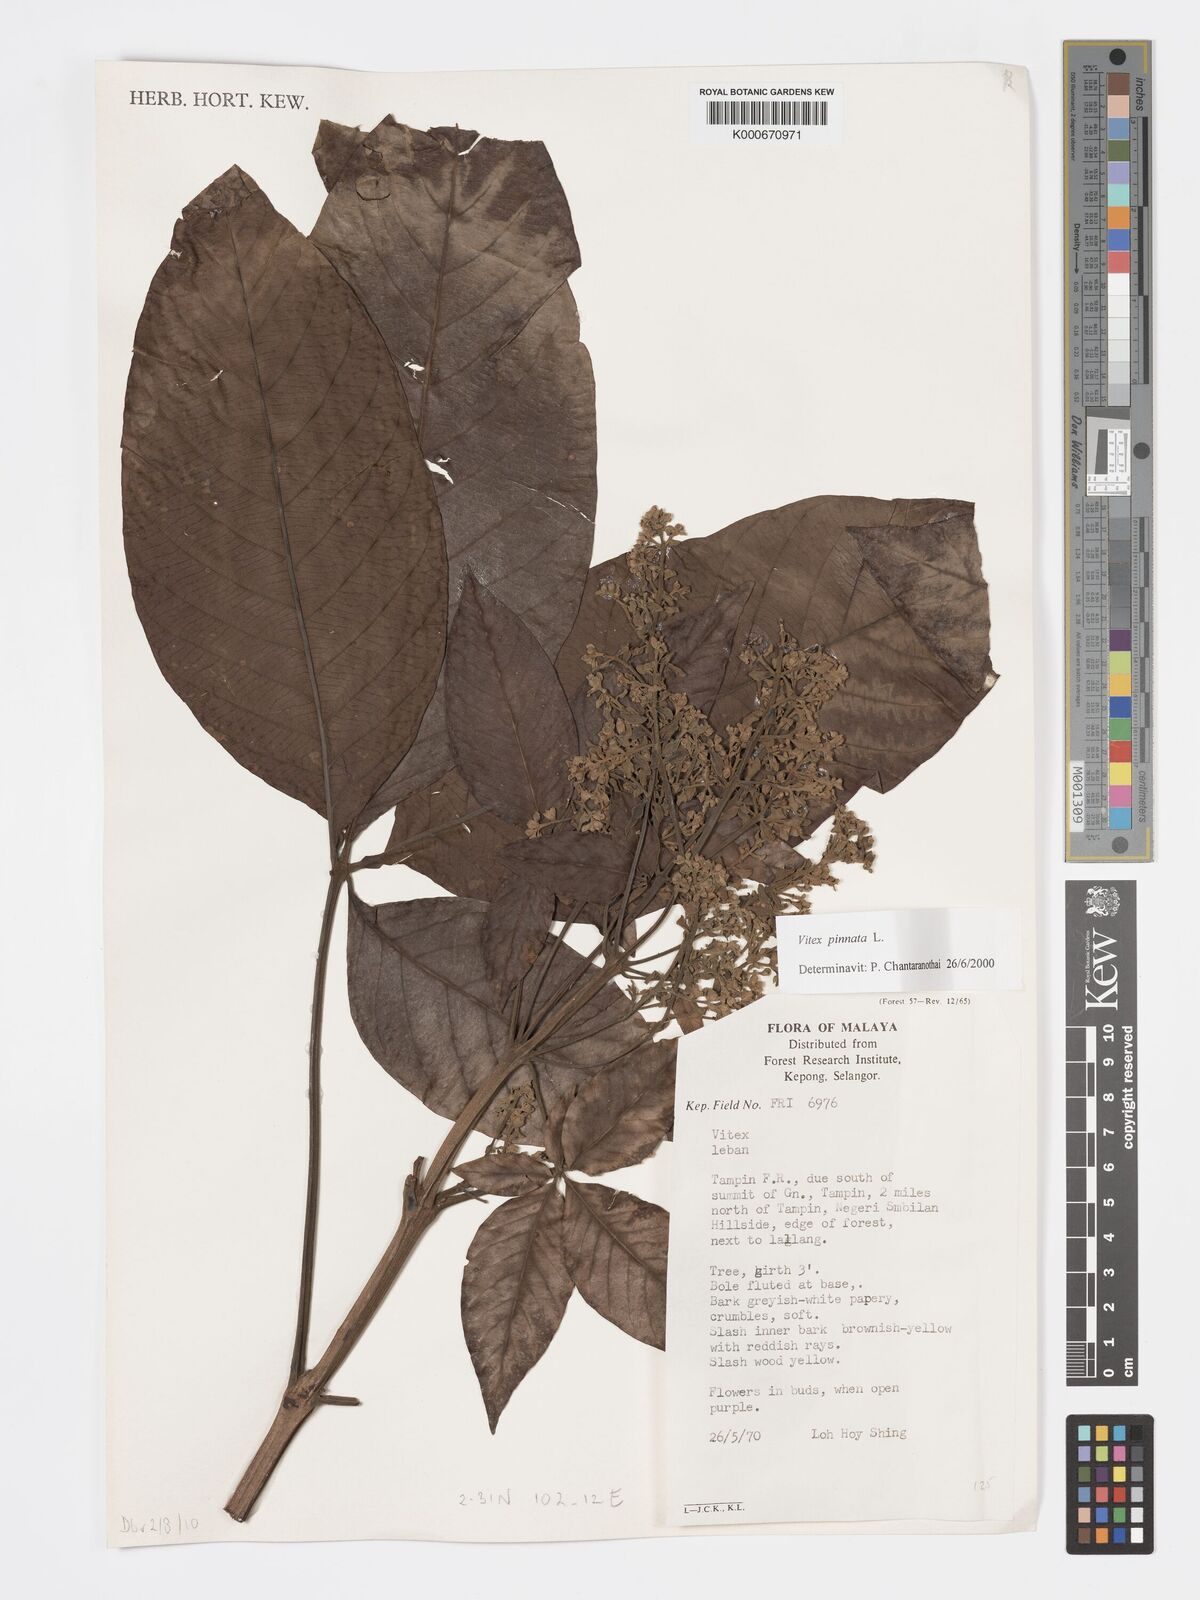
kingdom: Plantae
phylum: Tracheophyta
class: Magnoliopsida
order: Lamiales
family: Lamiaceae
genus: Vitex
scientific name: Vitex pinnata
